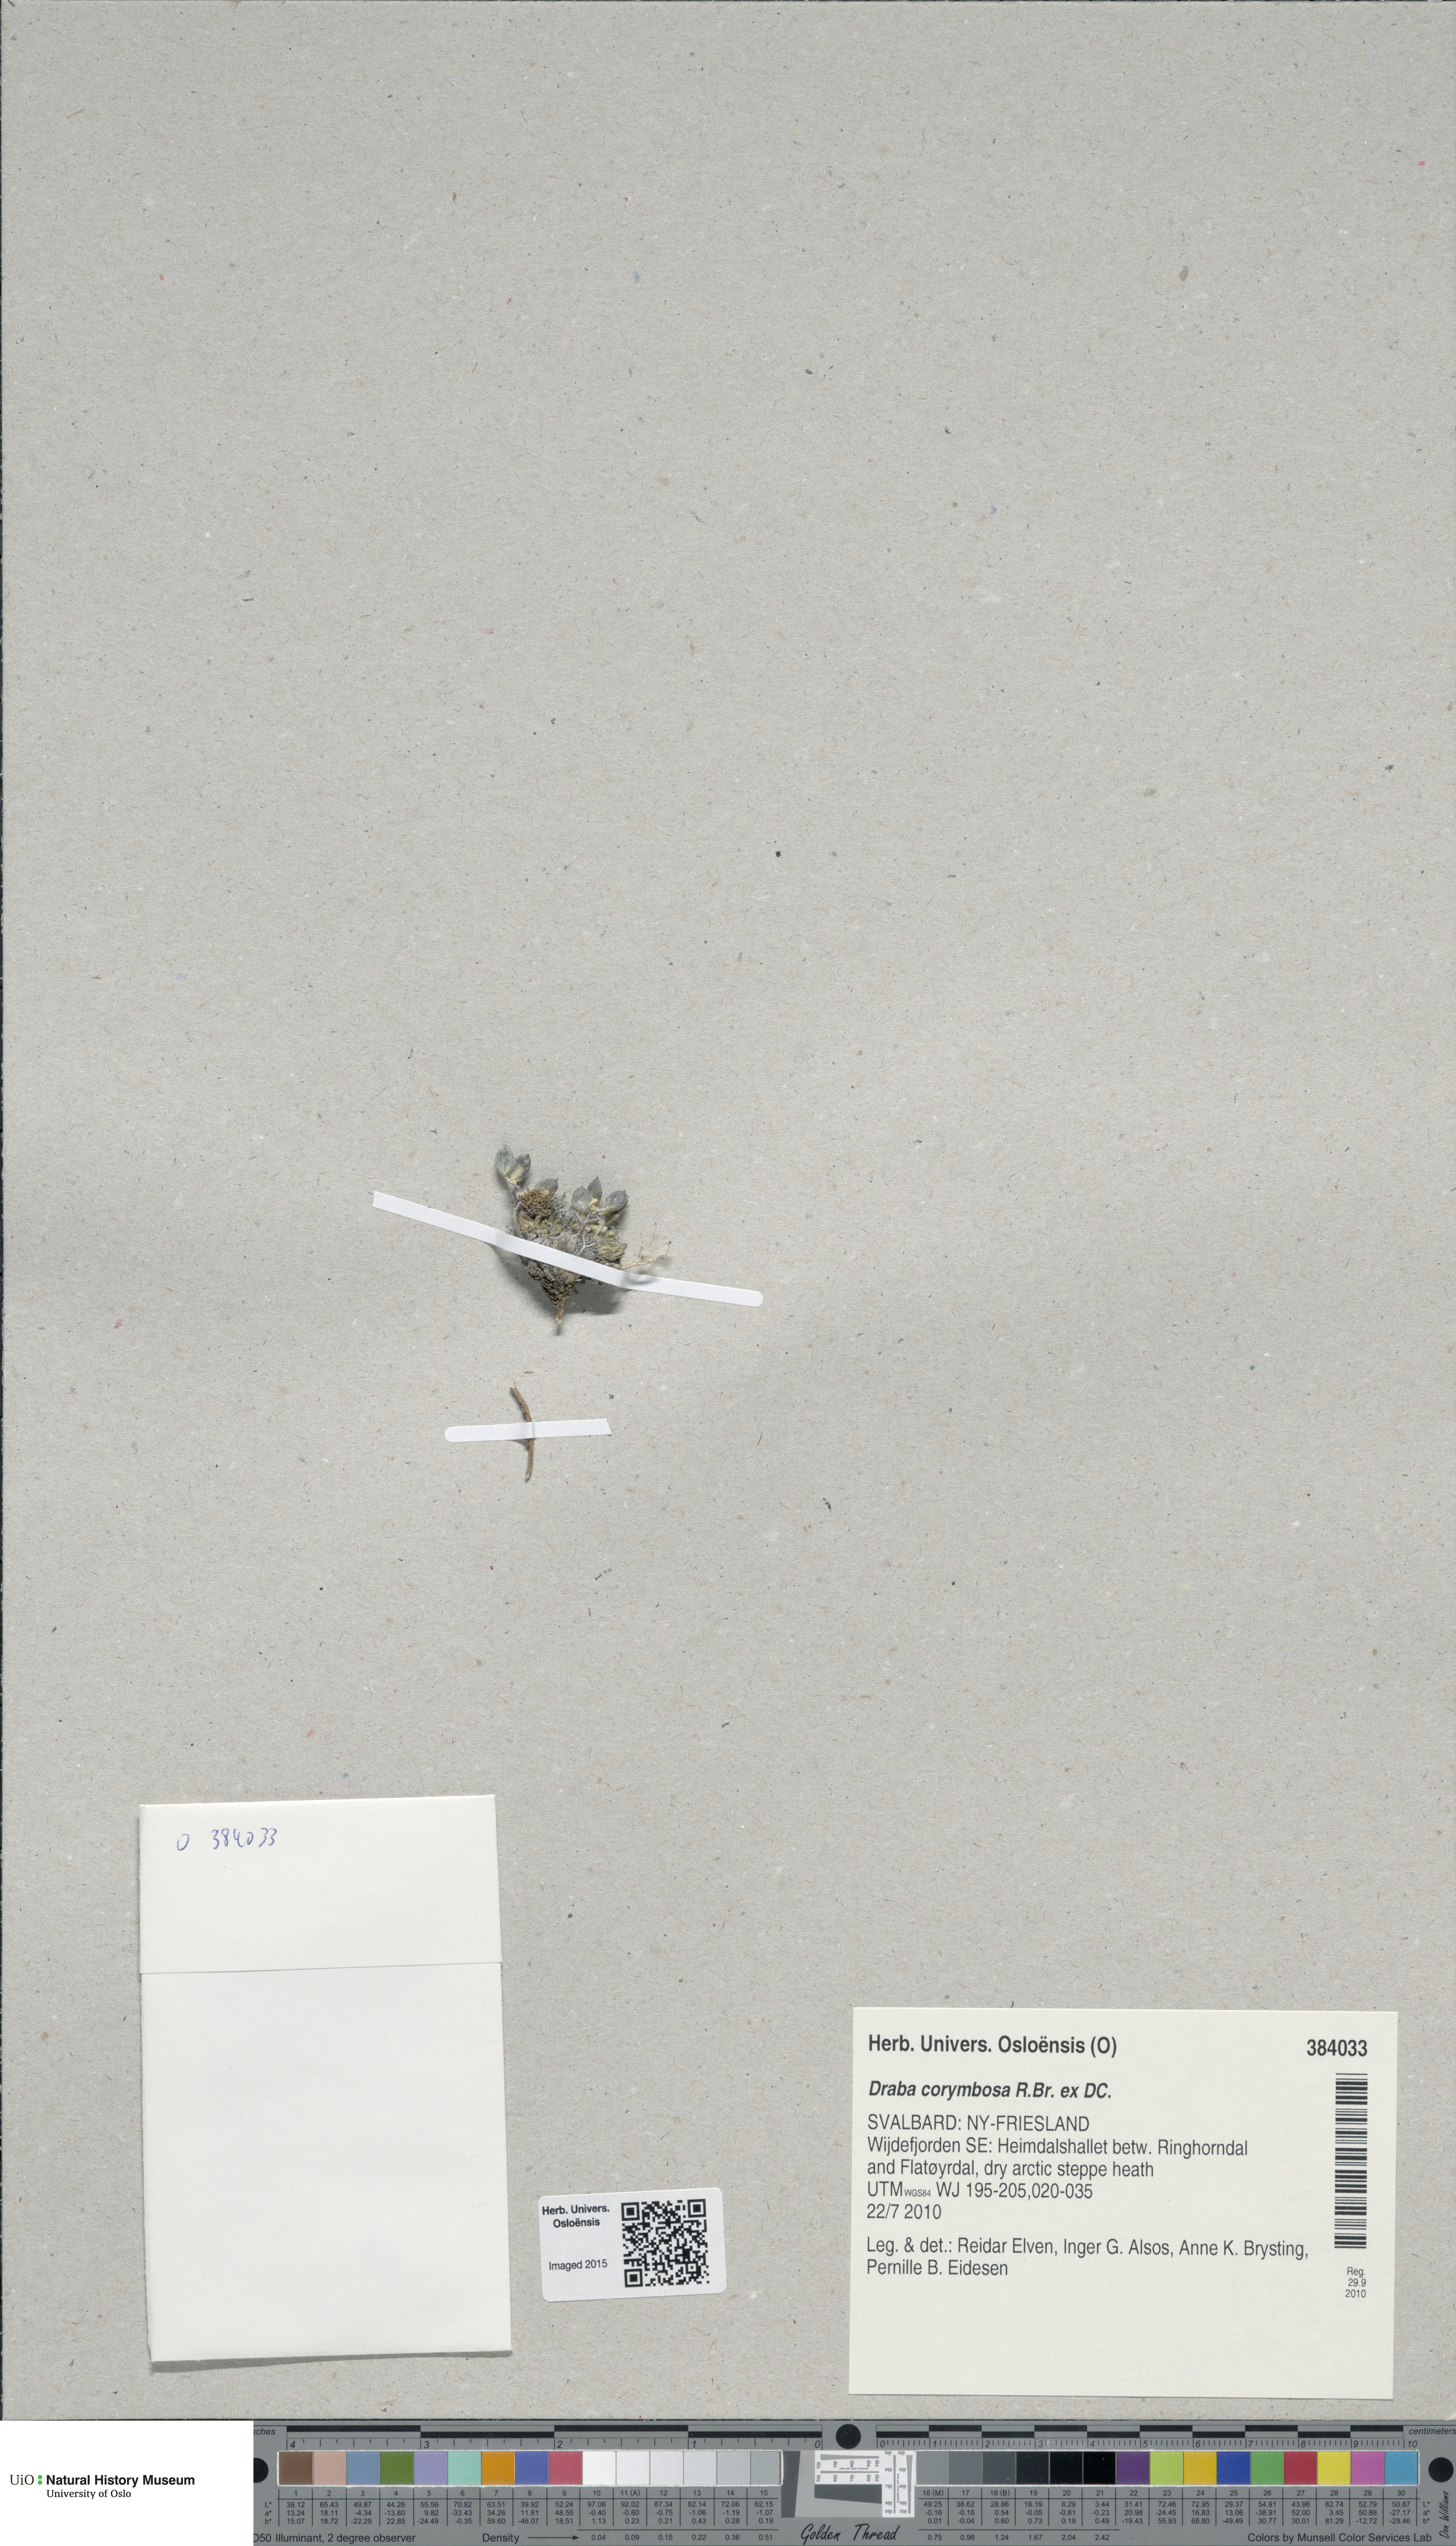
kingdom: Plantae
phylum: Tracheophyta
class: Magnoliopsida
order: Brassicales
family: Brassicaceae
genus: Draba
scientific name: Draba corymbosa
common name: Cushion whitlow-grass
